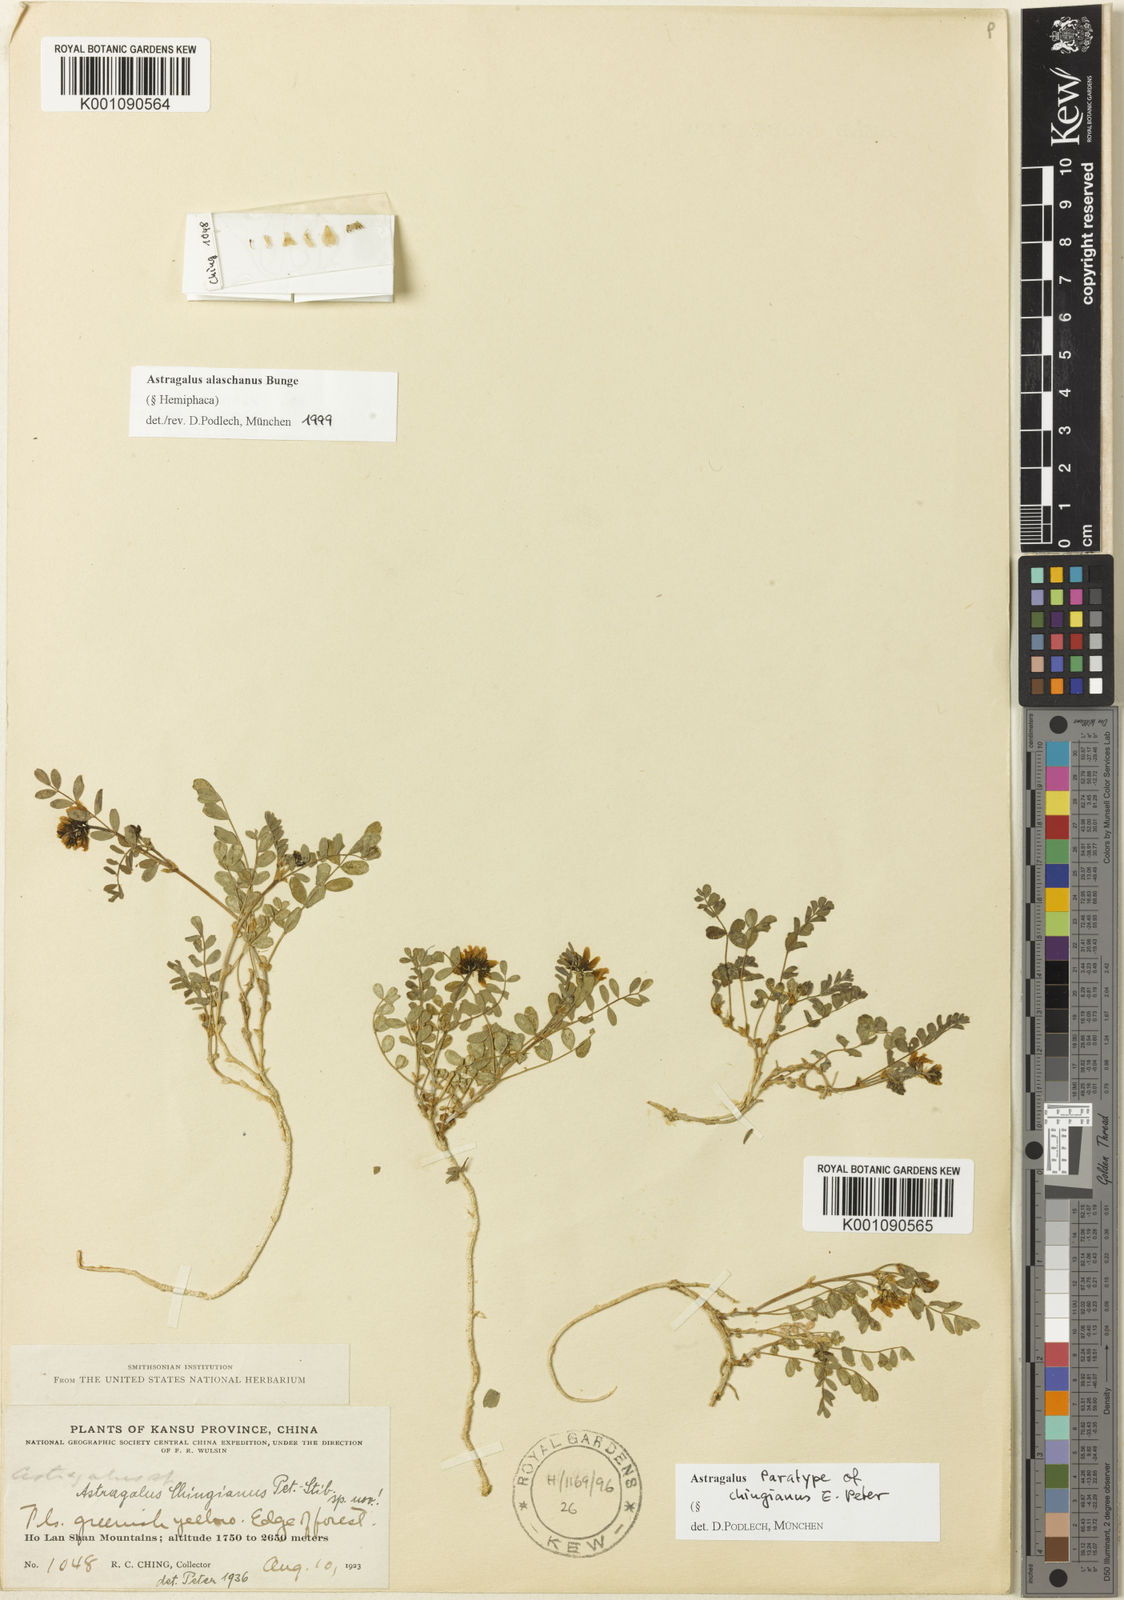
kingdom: Plantae
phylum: Tracheophyta
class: Magnoliopsida
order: Fabales
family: Fabaceae
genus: Astragalus
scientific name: Astragalus
